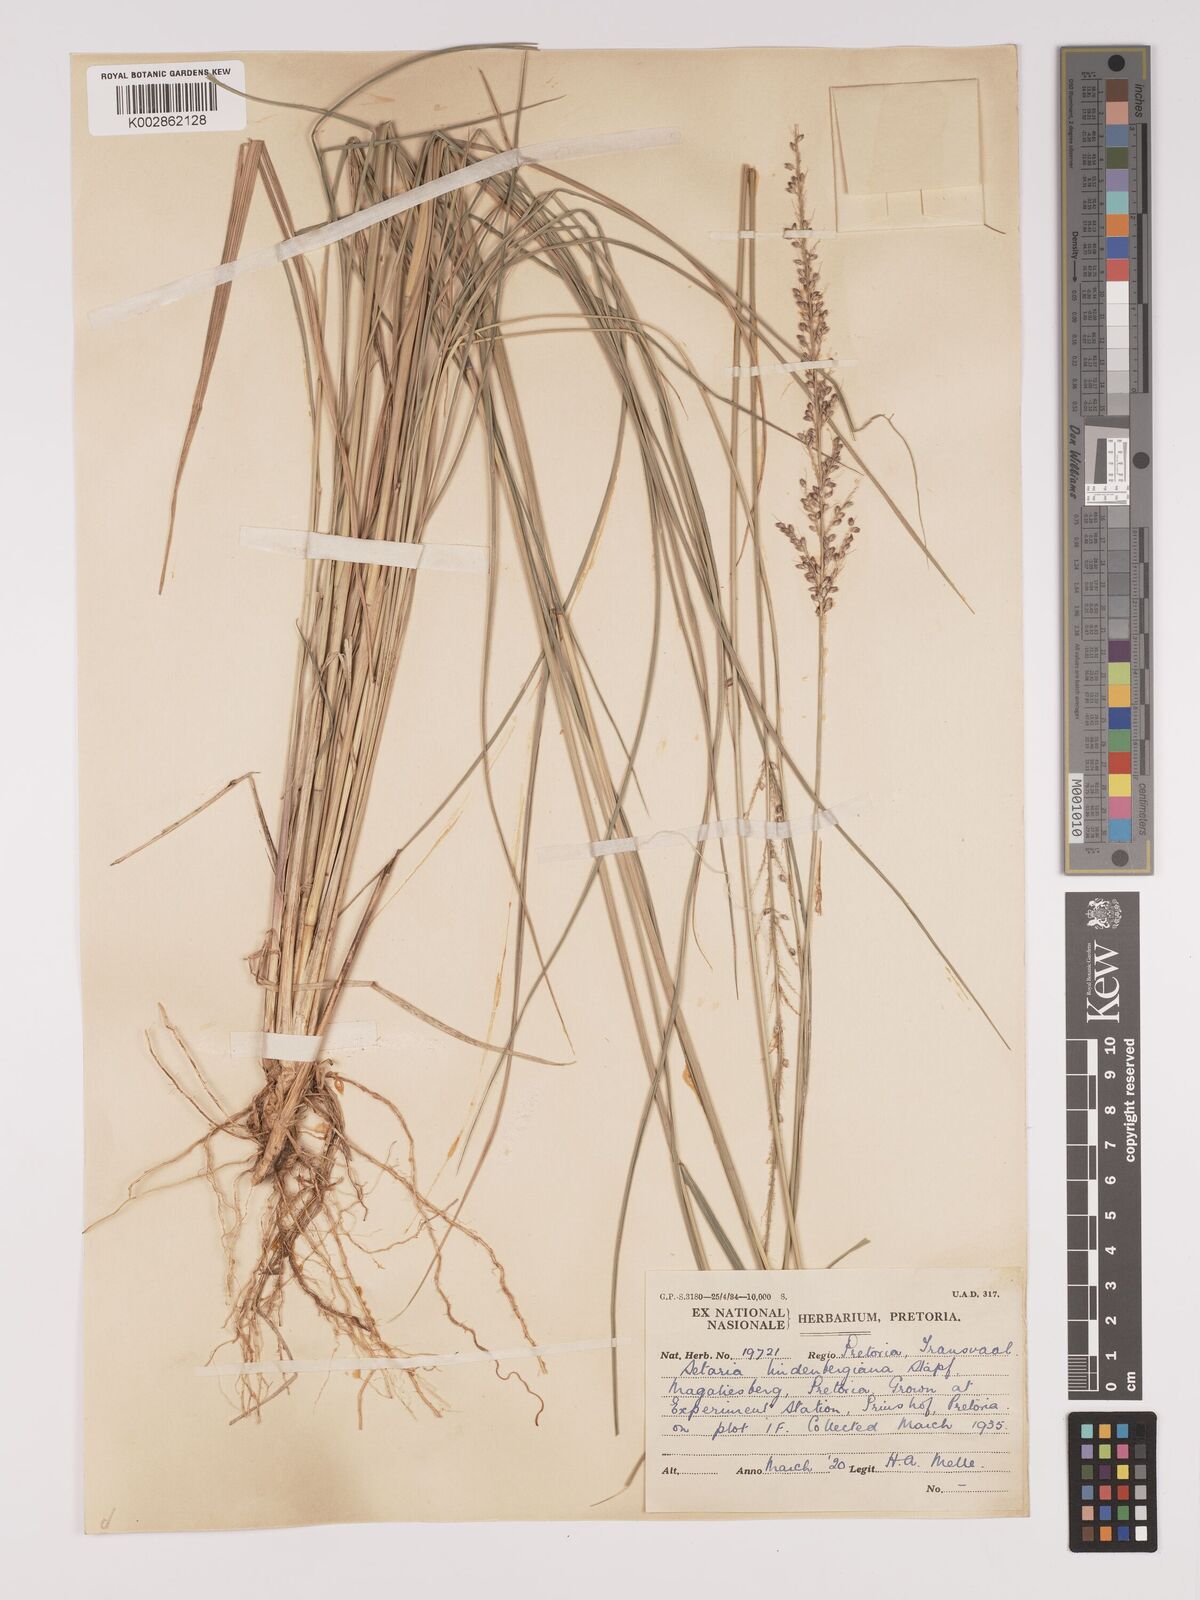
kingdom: Plantae
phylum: Tracheophyta
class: Liliopsida
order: Poales
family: Poaceae
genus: Setaria
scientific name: Setaria lindenbergiana
